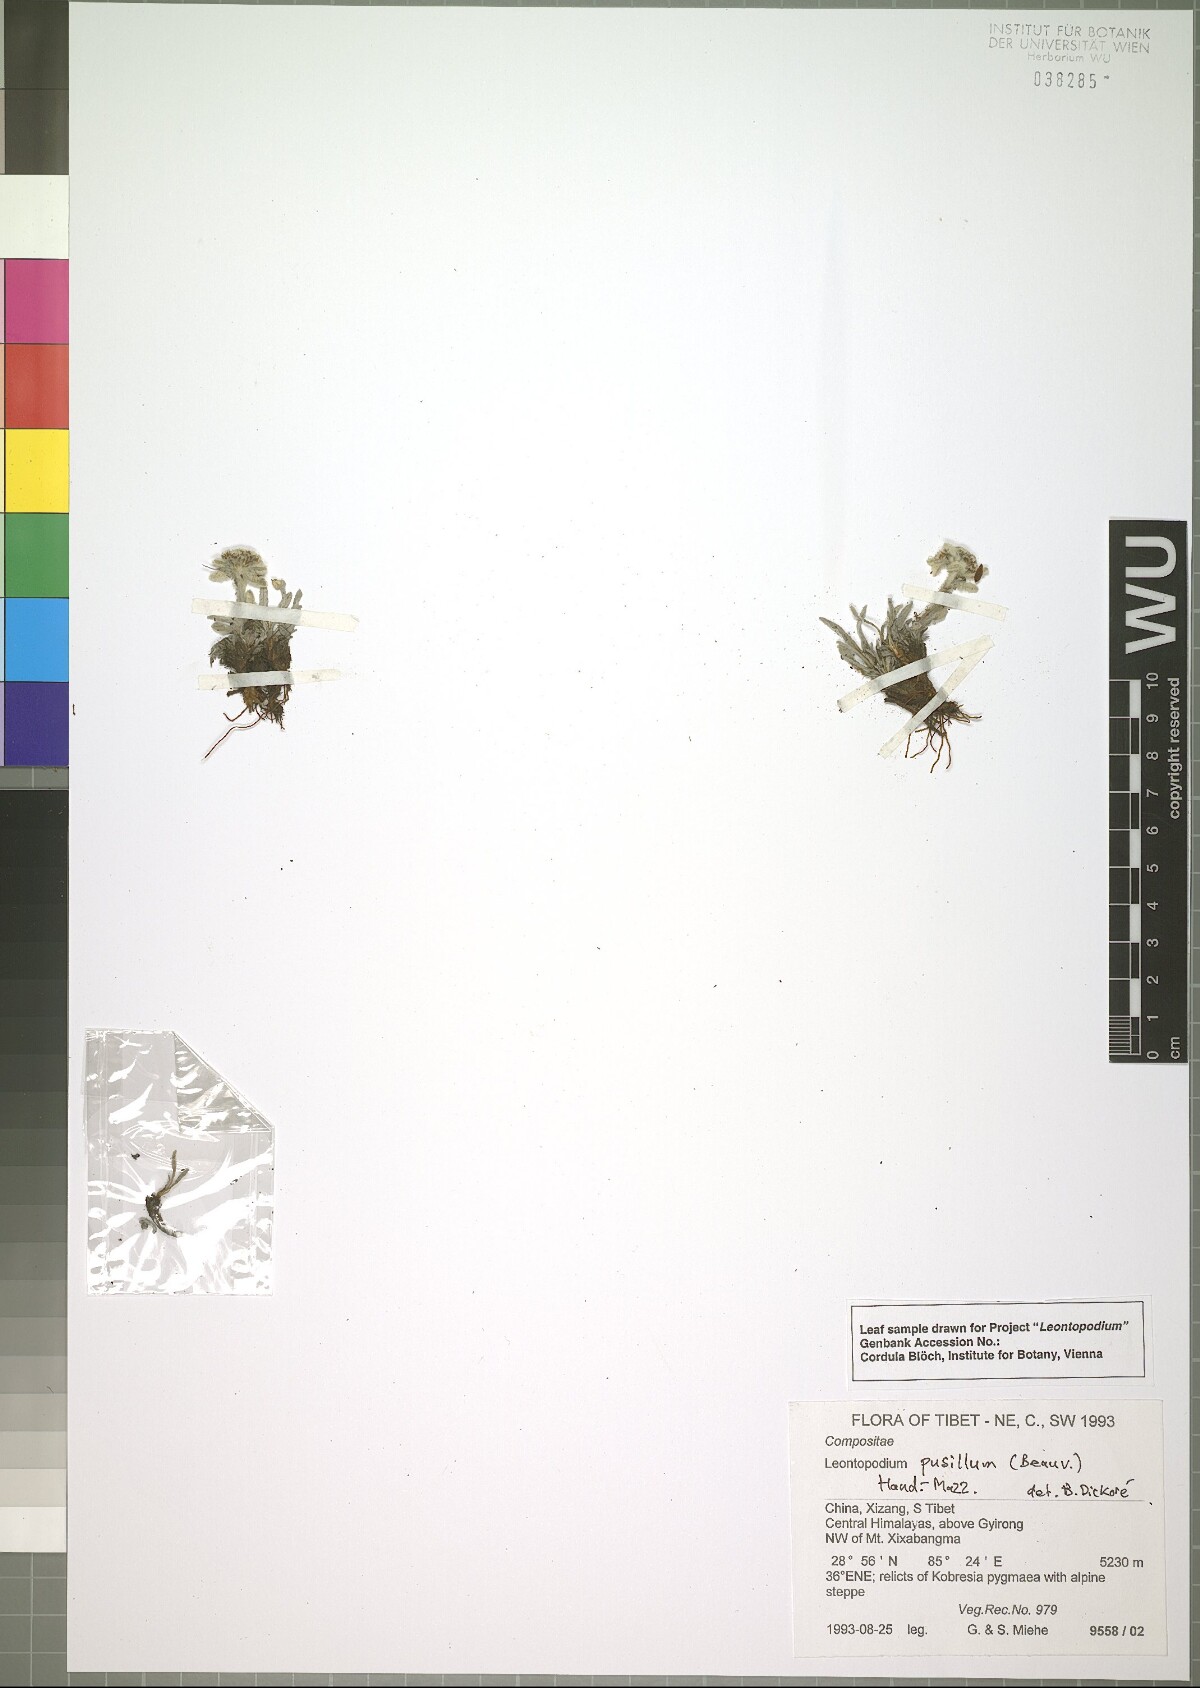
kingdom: Plantae
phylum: Tracheophyta
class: Magnoliopsida
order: Asterales
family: Asteraceae
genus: Leontopodium
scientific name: Leontopodium pusillum
